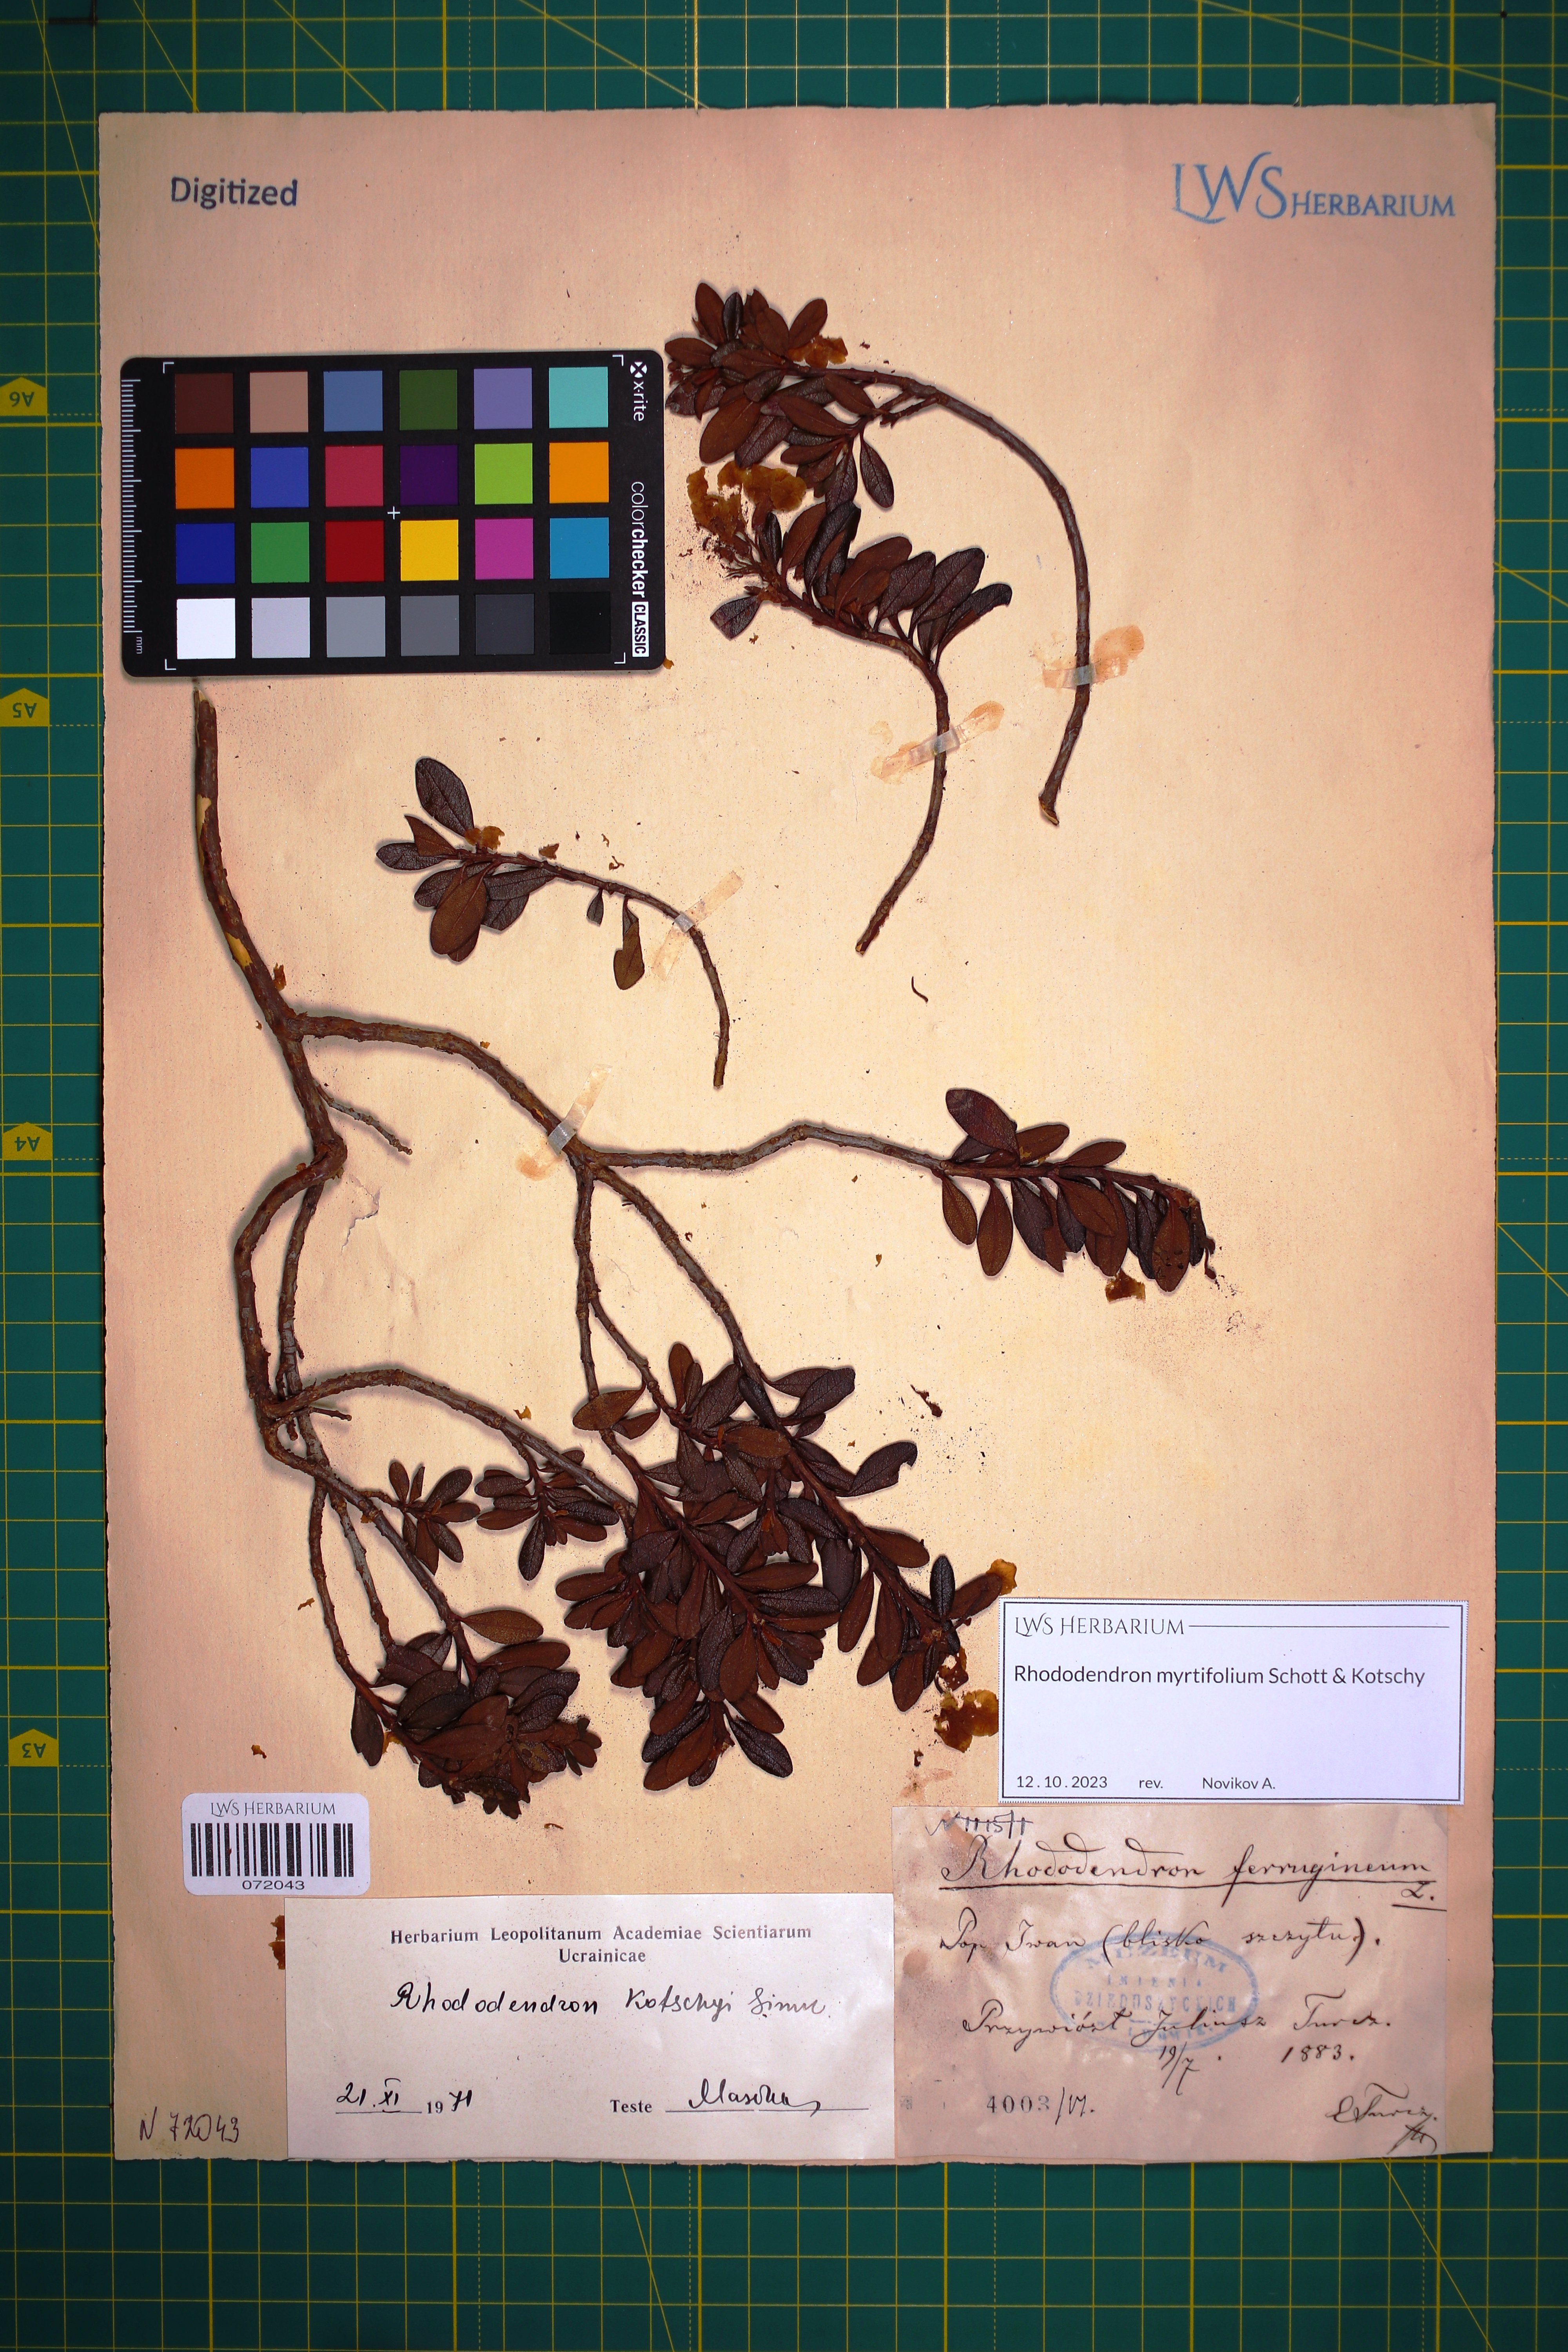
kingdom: Plantae
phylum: Tracheophyta
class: Magnoliopsida
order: Ericales
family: Ericaceae
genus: Rhododendron
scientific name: Rhododendron kotschyi
